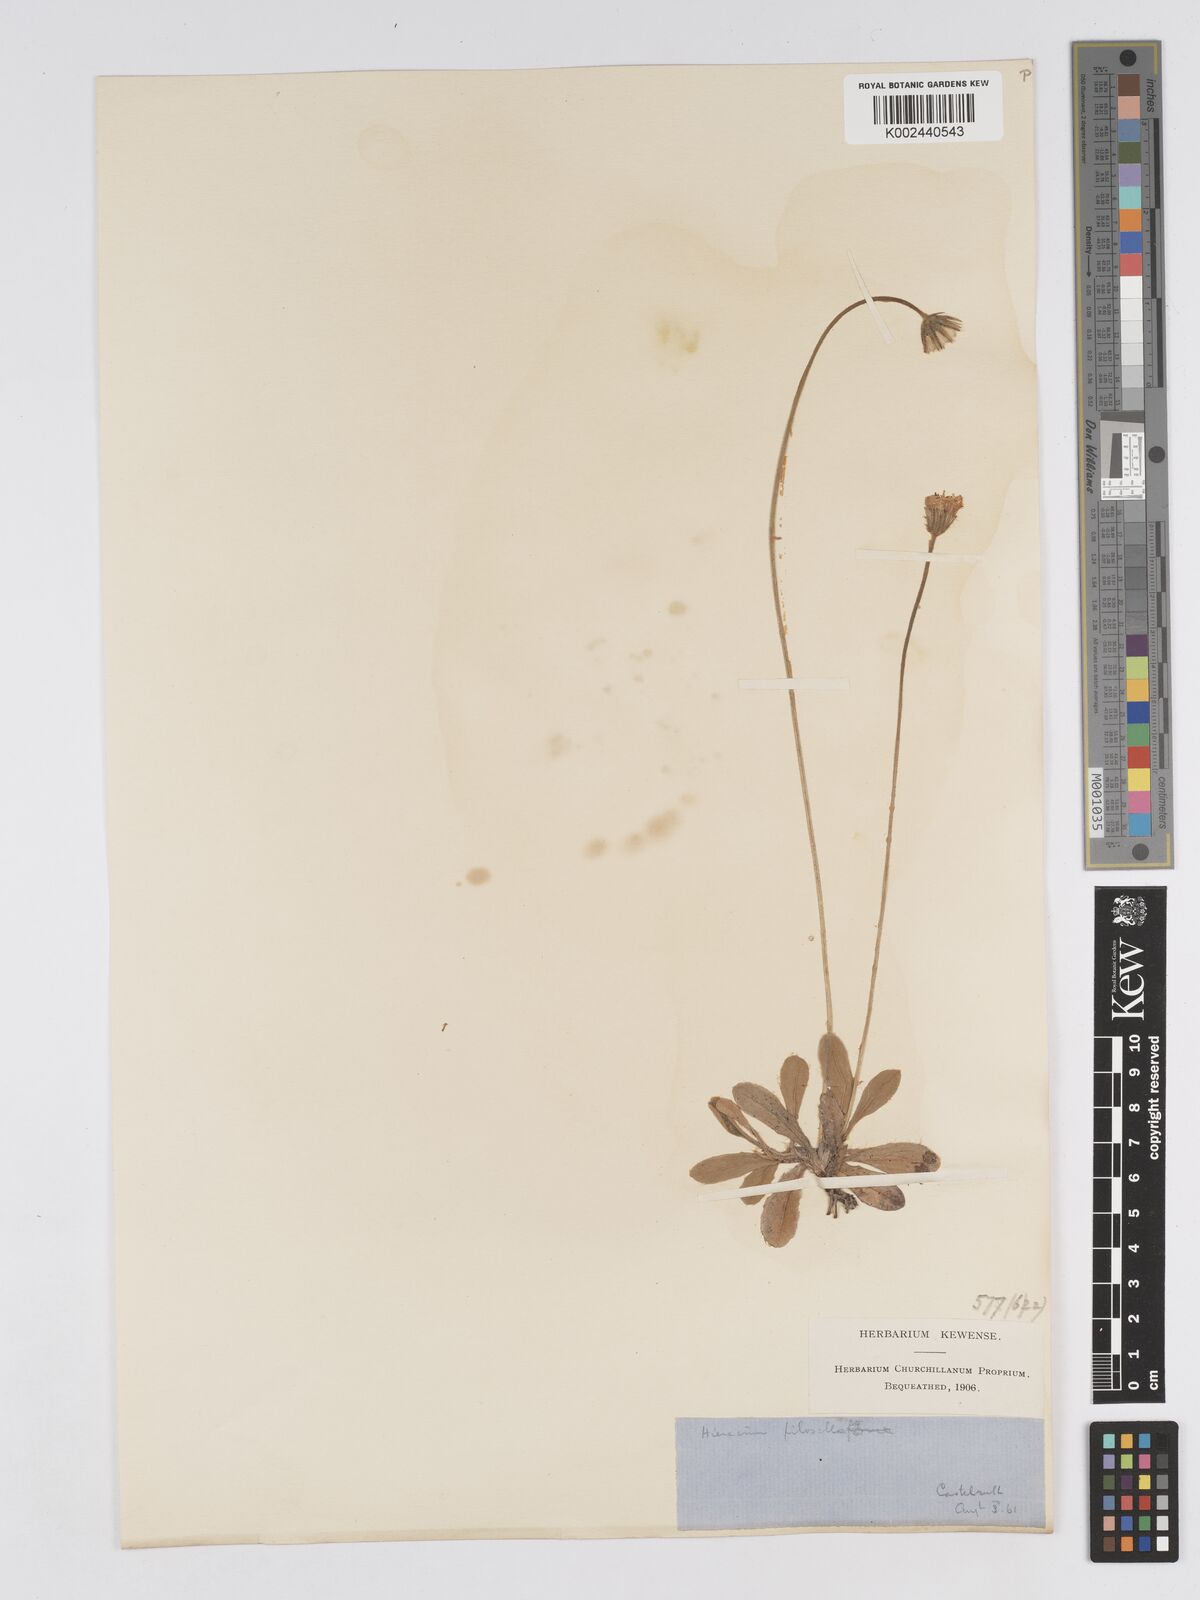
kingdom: Plantae
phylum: Tracheophyta
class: Magnoliopsida
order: Asterales
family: Asteraceae
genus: Pilosella
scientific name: Pilosella velutina
